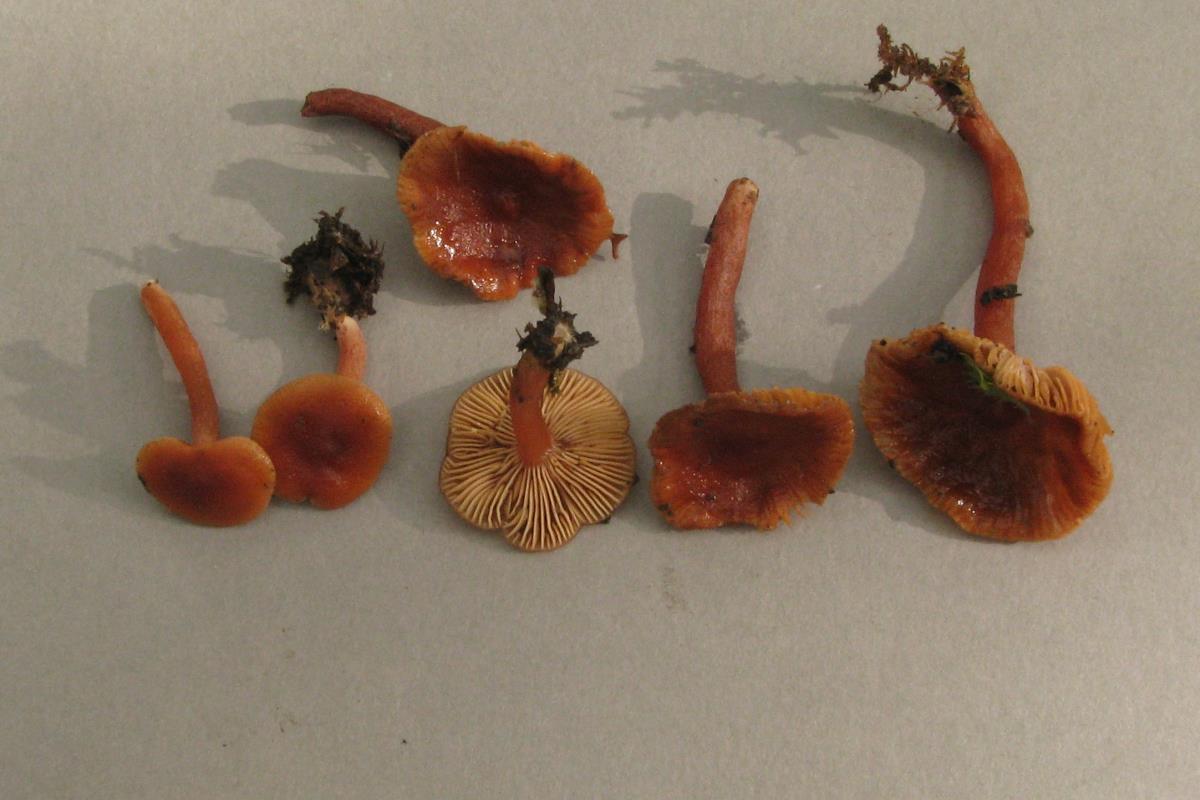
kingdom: Fungi
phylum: Basidiomycota
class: Agaricomycetes
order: Russulales
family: Russulaceae
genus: Lactarius
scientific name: Lactarius umerensis
